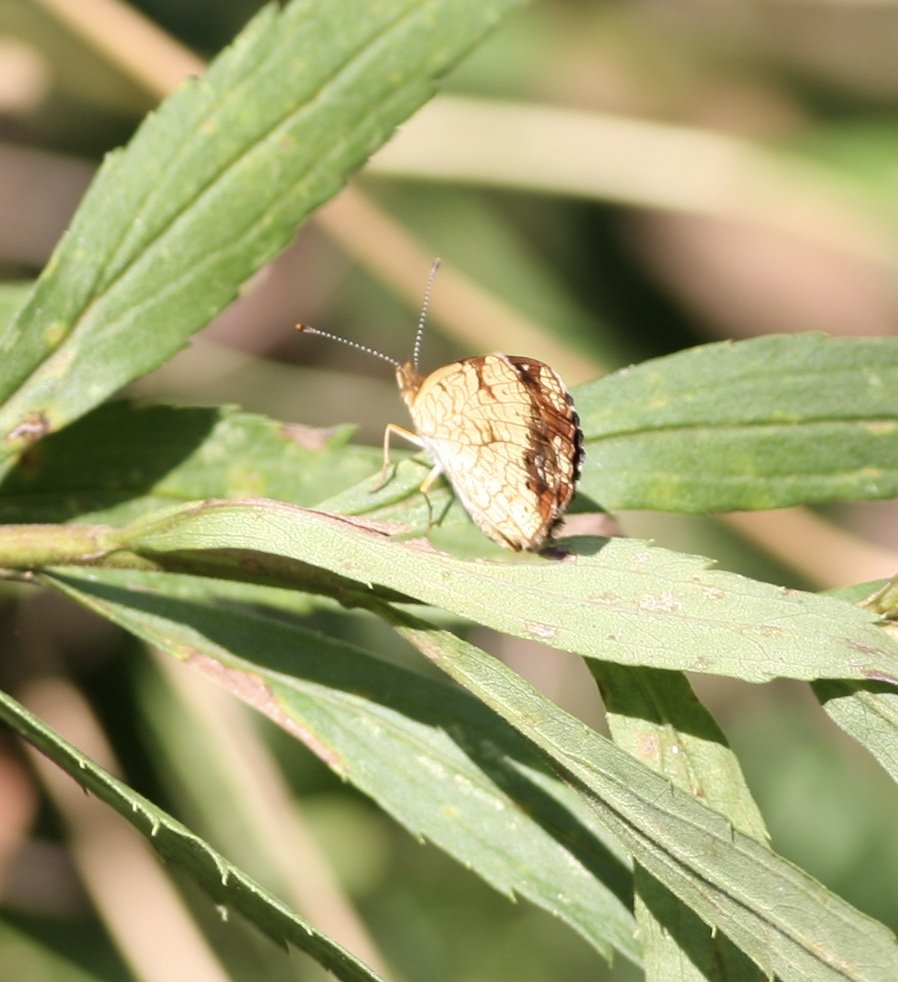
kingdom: Animalia
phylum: Arthropoda
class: Insecta
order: Lepidoptera
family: Nymphalidae
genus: Phyciodes
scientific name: Phyciodes tharos
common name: Pearl Crescent
